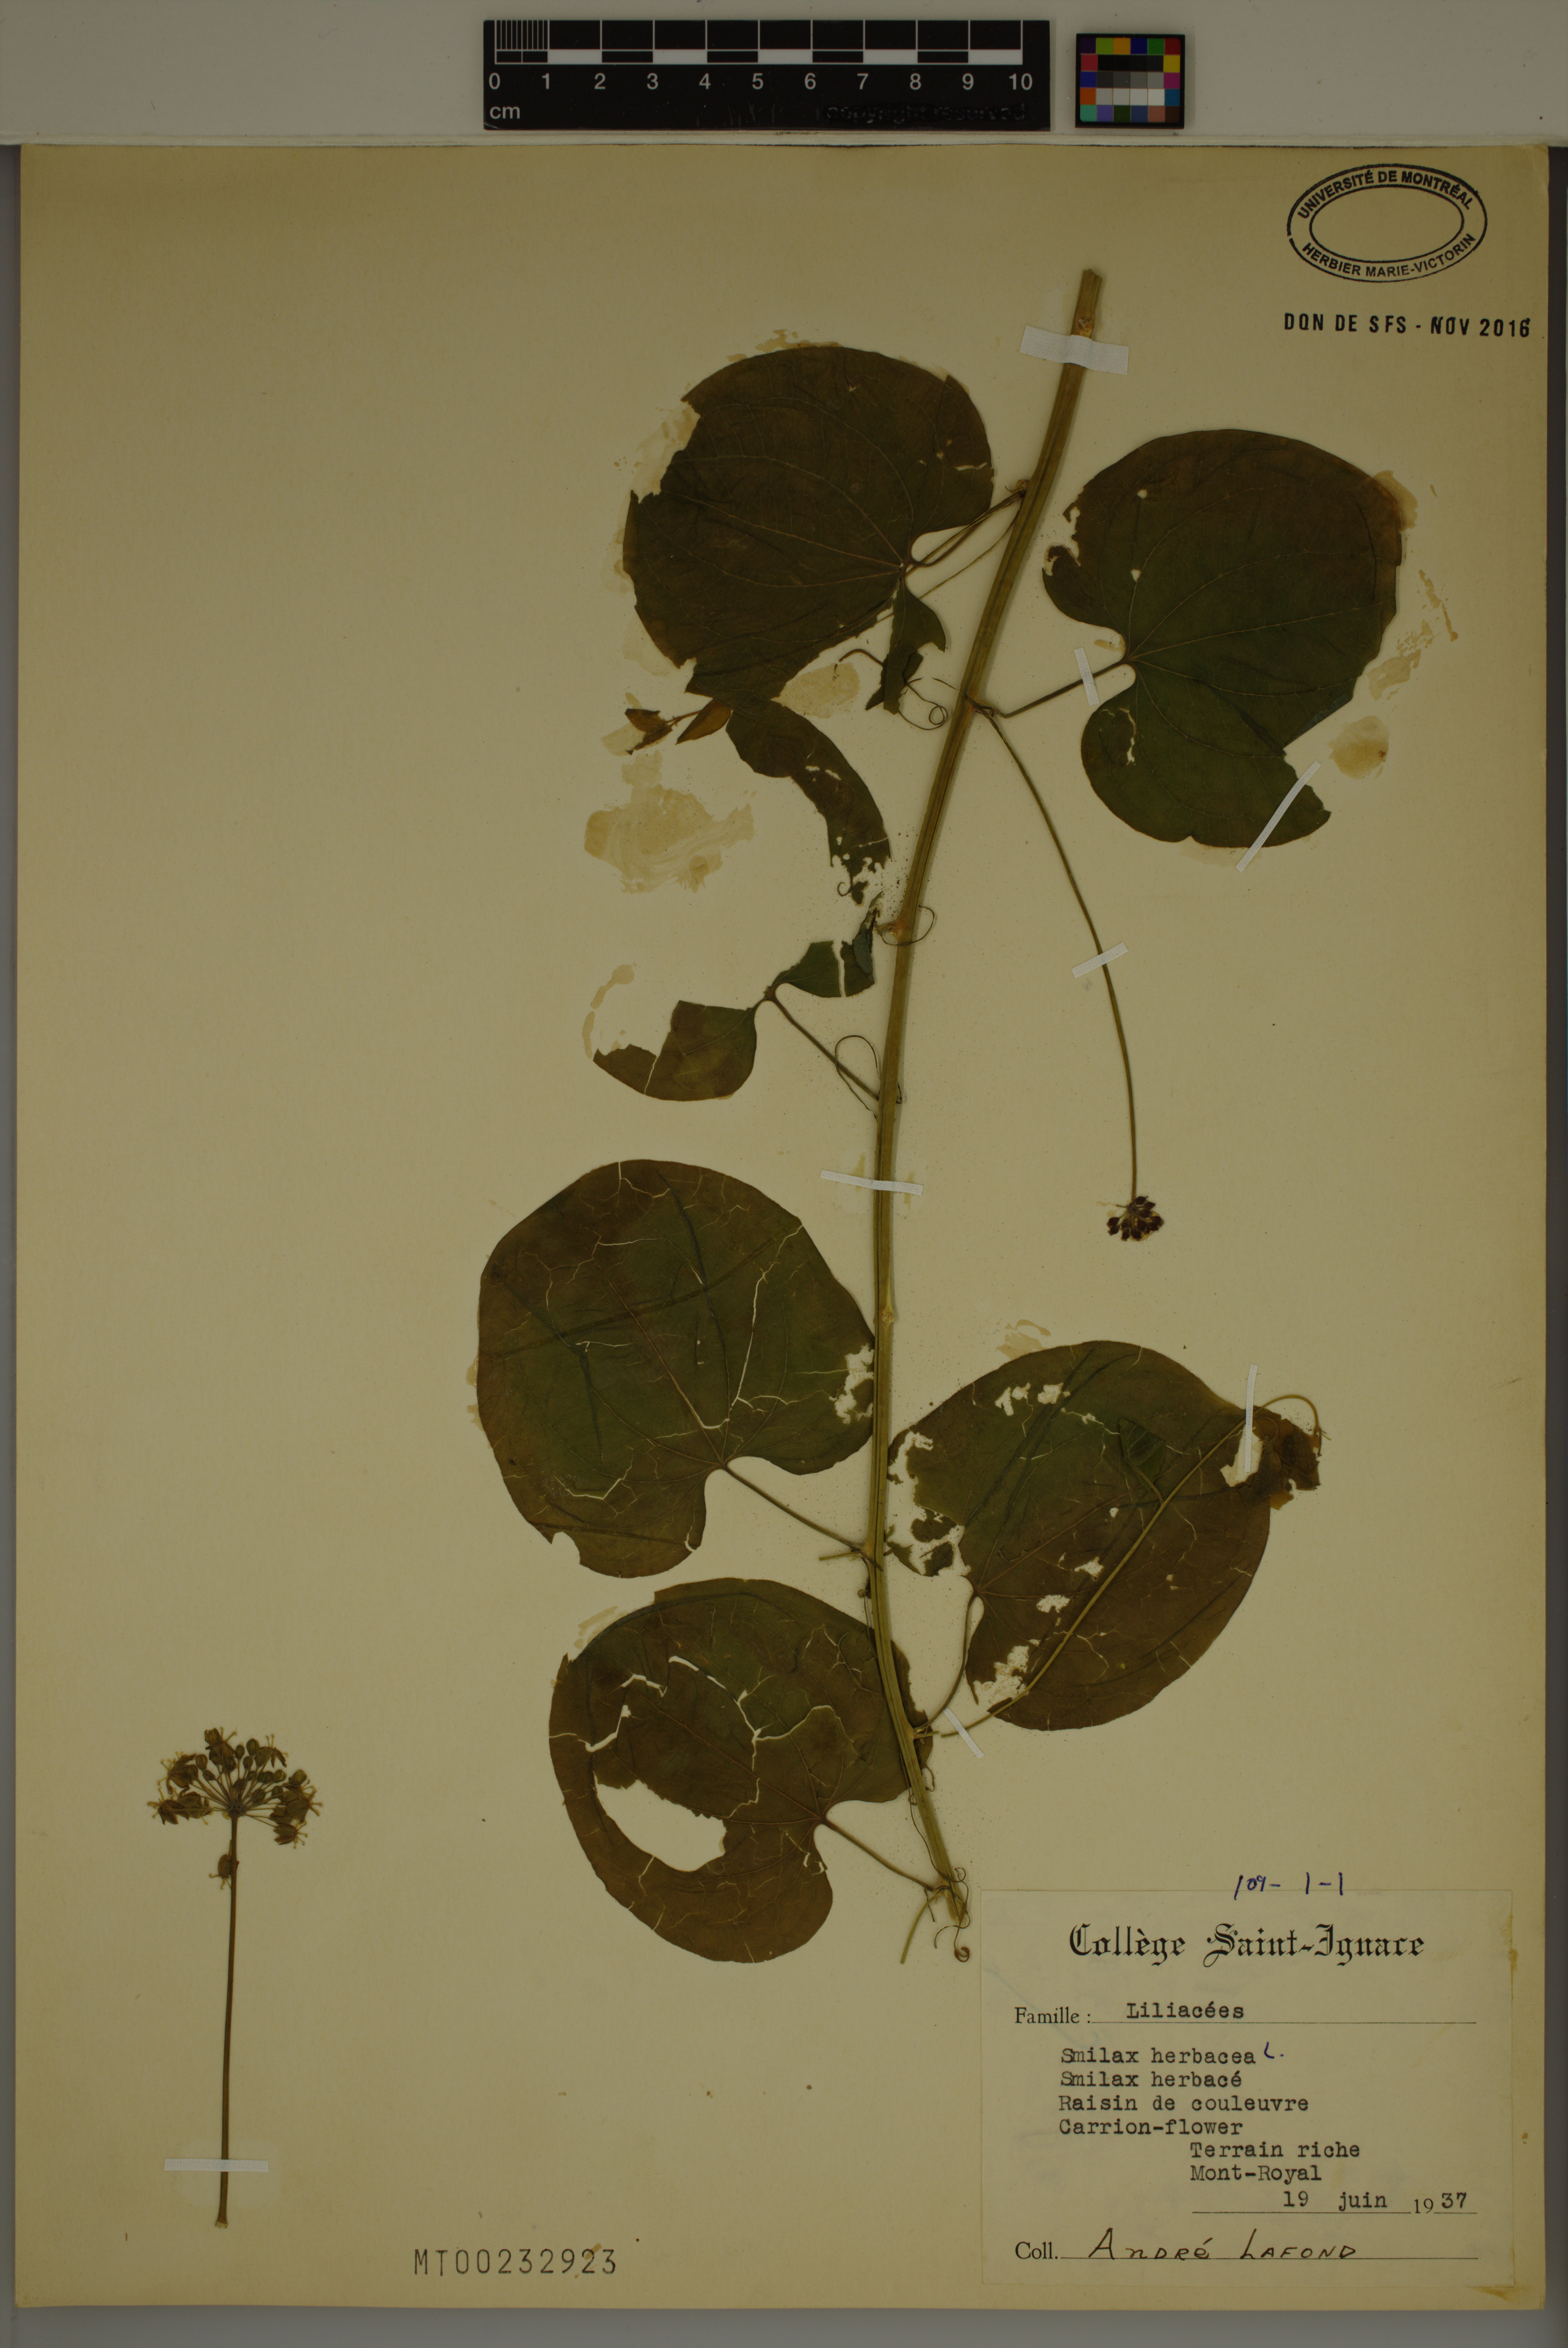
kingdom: Plantae
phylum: Tracheophyta
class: Liliopsida
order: Liliales
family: Smilacaceae
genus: Smilax
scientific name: Smilax herbacea
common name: Jacob's-ladder
